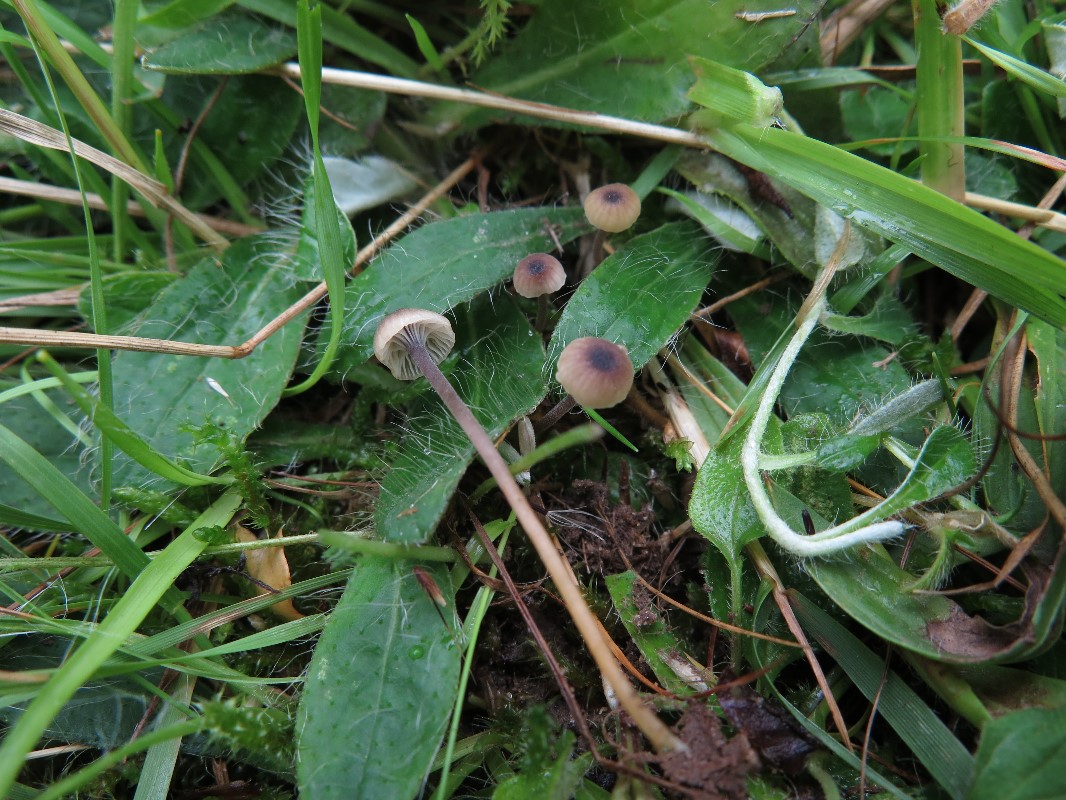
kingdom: Fungi
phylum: Basidiomycota
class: Agaricomycetes
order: Hymenochaetales
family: Rickenellaceae
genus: Rickenella
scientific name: Rickenella swartzii
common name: finstokket mosnavlehat
